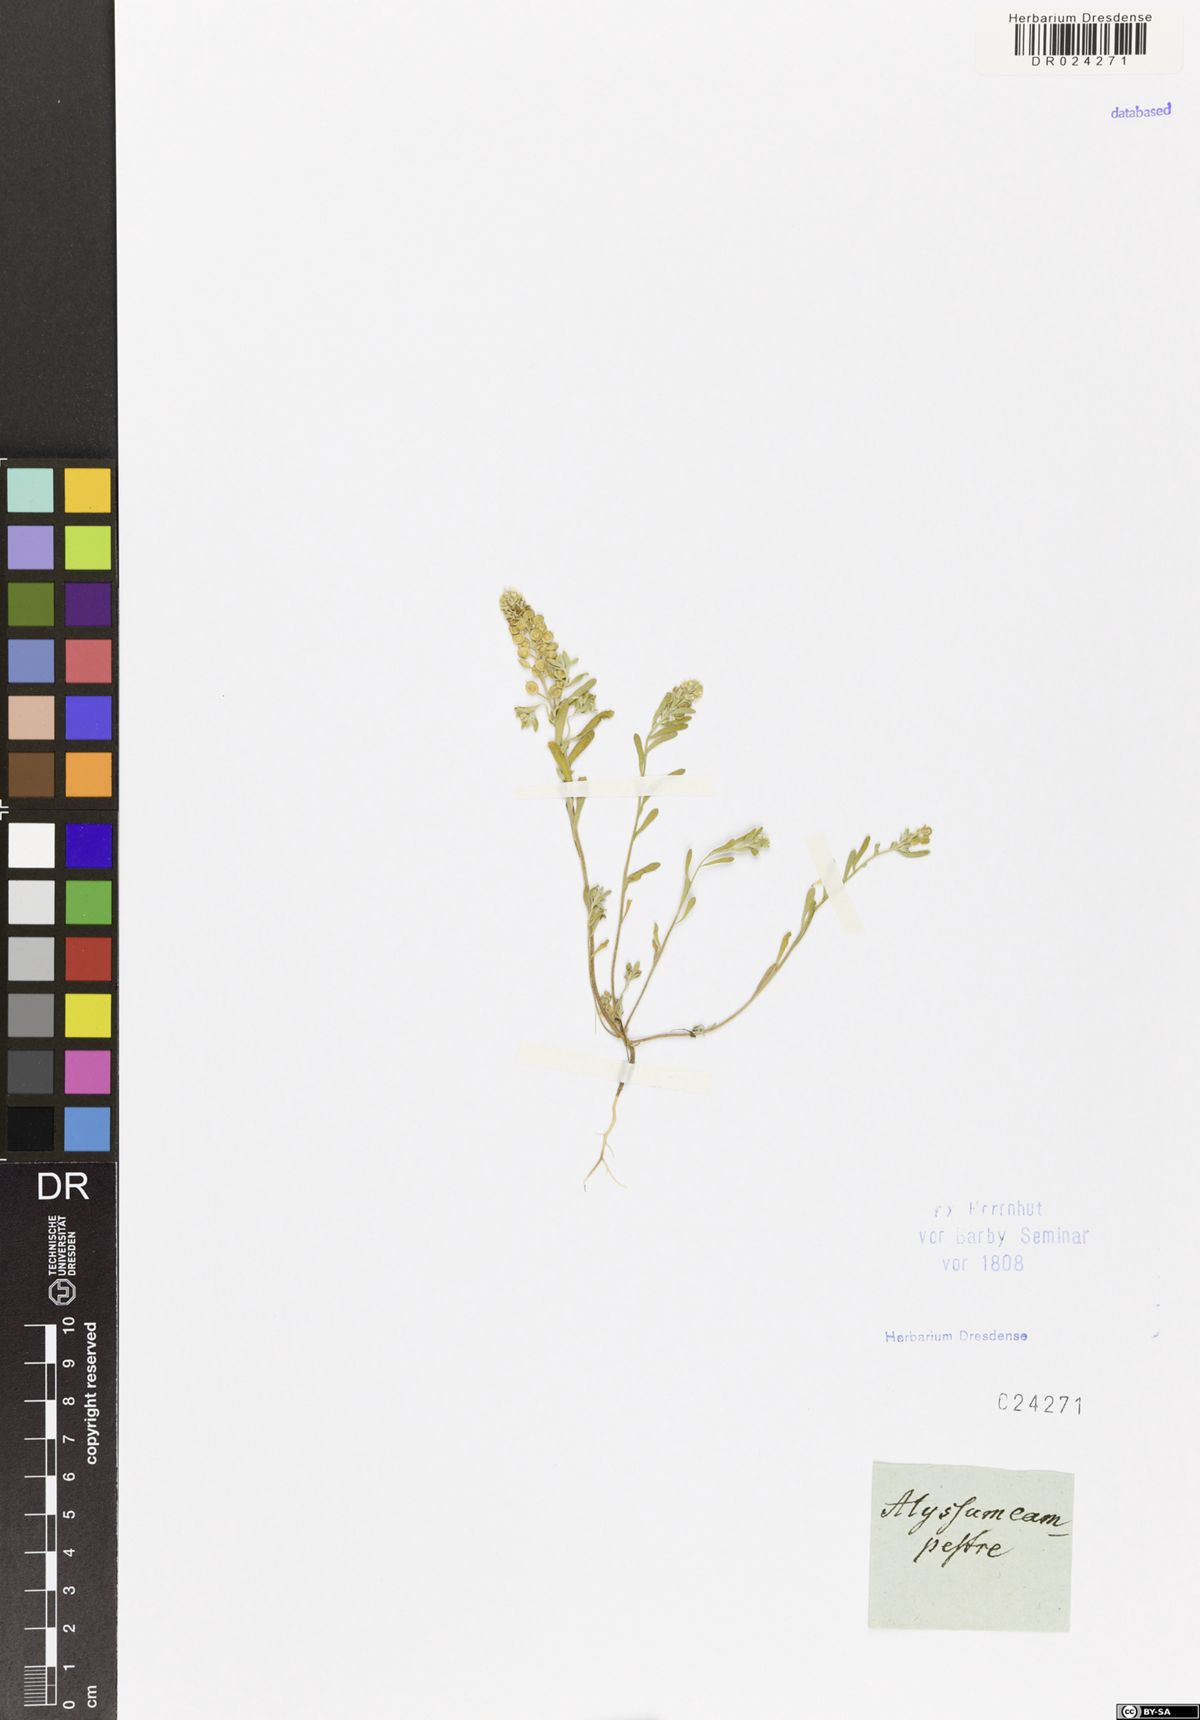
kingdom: Plantae
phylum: Tracheophyta
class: Magnoliopsida
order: Brassicales
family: Brassicaceae
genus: Alyssum
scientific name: Alyssum alyssoides
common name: Small alison
